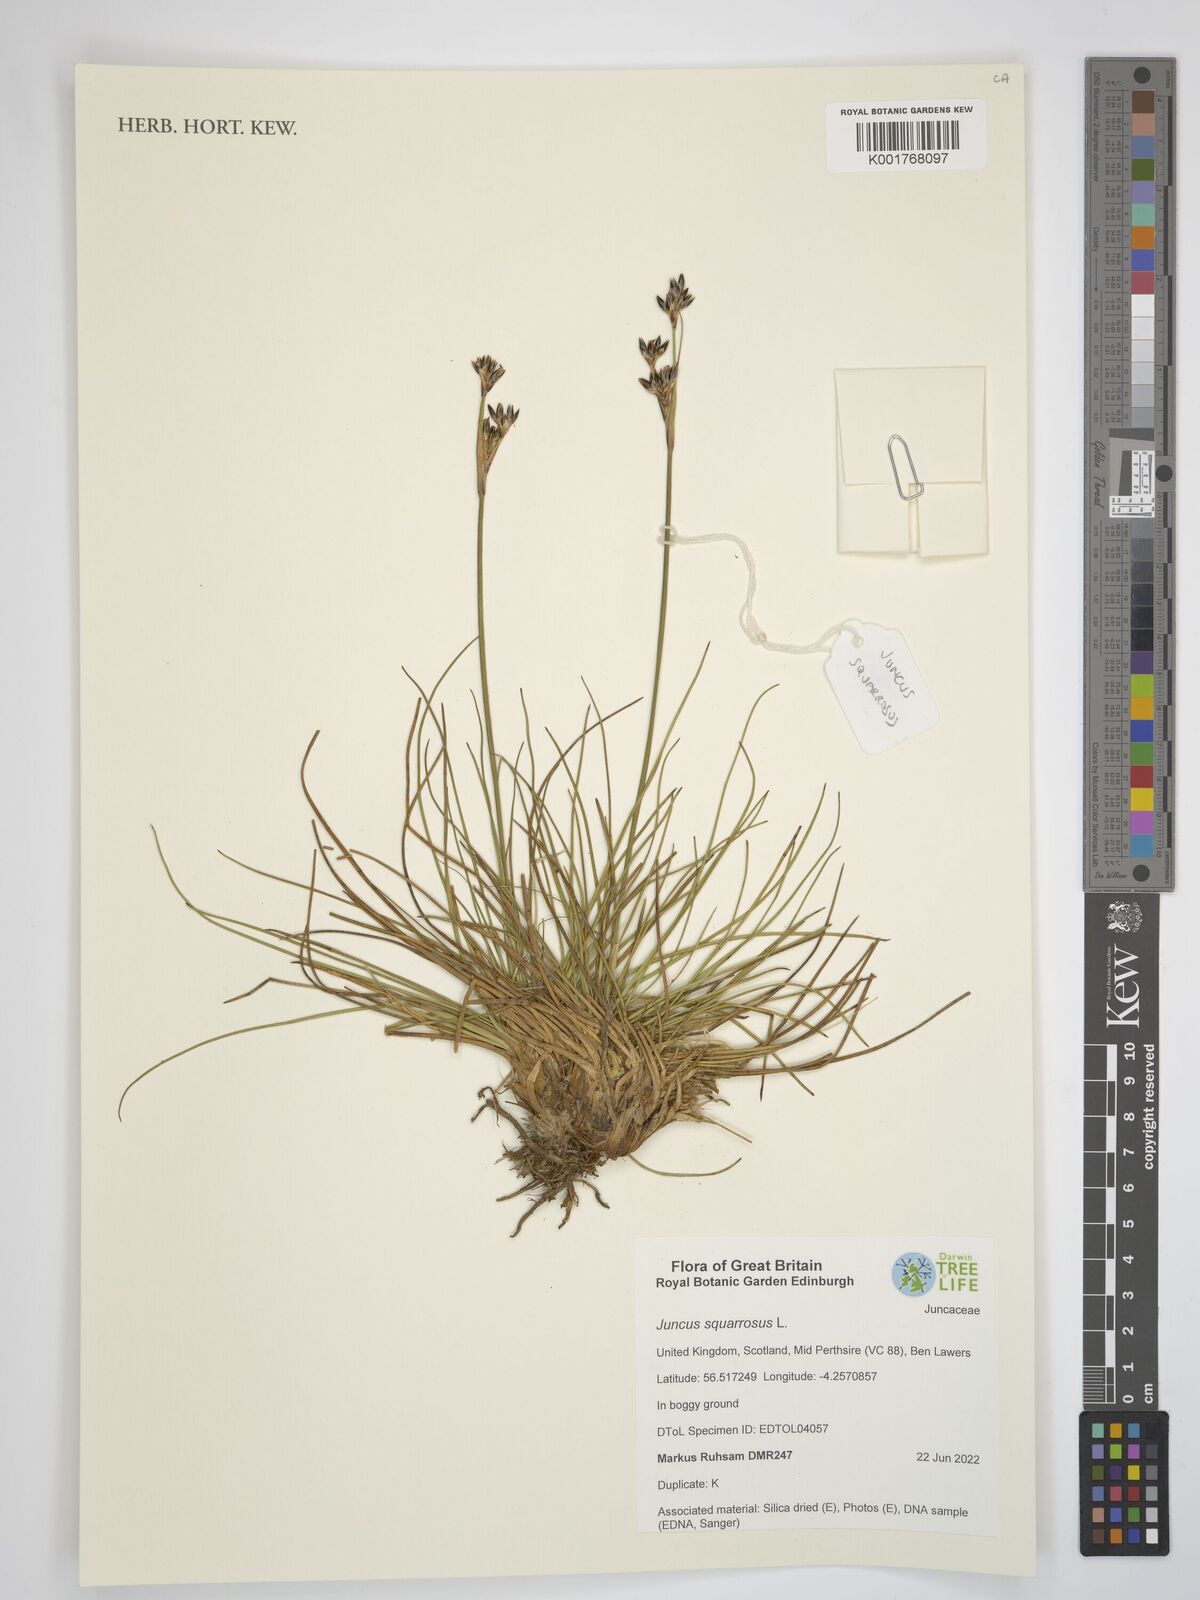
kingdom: Plantae
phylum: Tracheophyta
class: Liliopsida
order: Poales
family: Juncaceae
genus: Juncus
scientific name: Juncus squarrosus
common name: Heath rush
